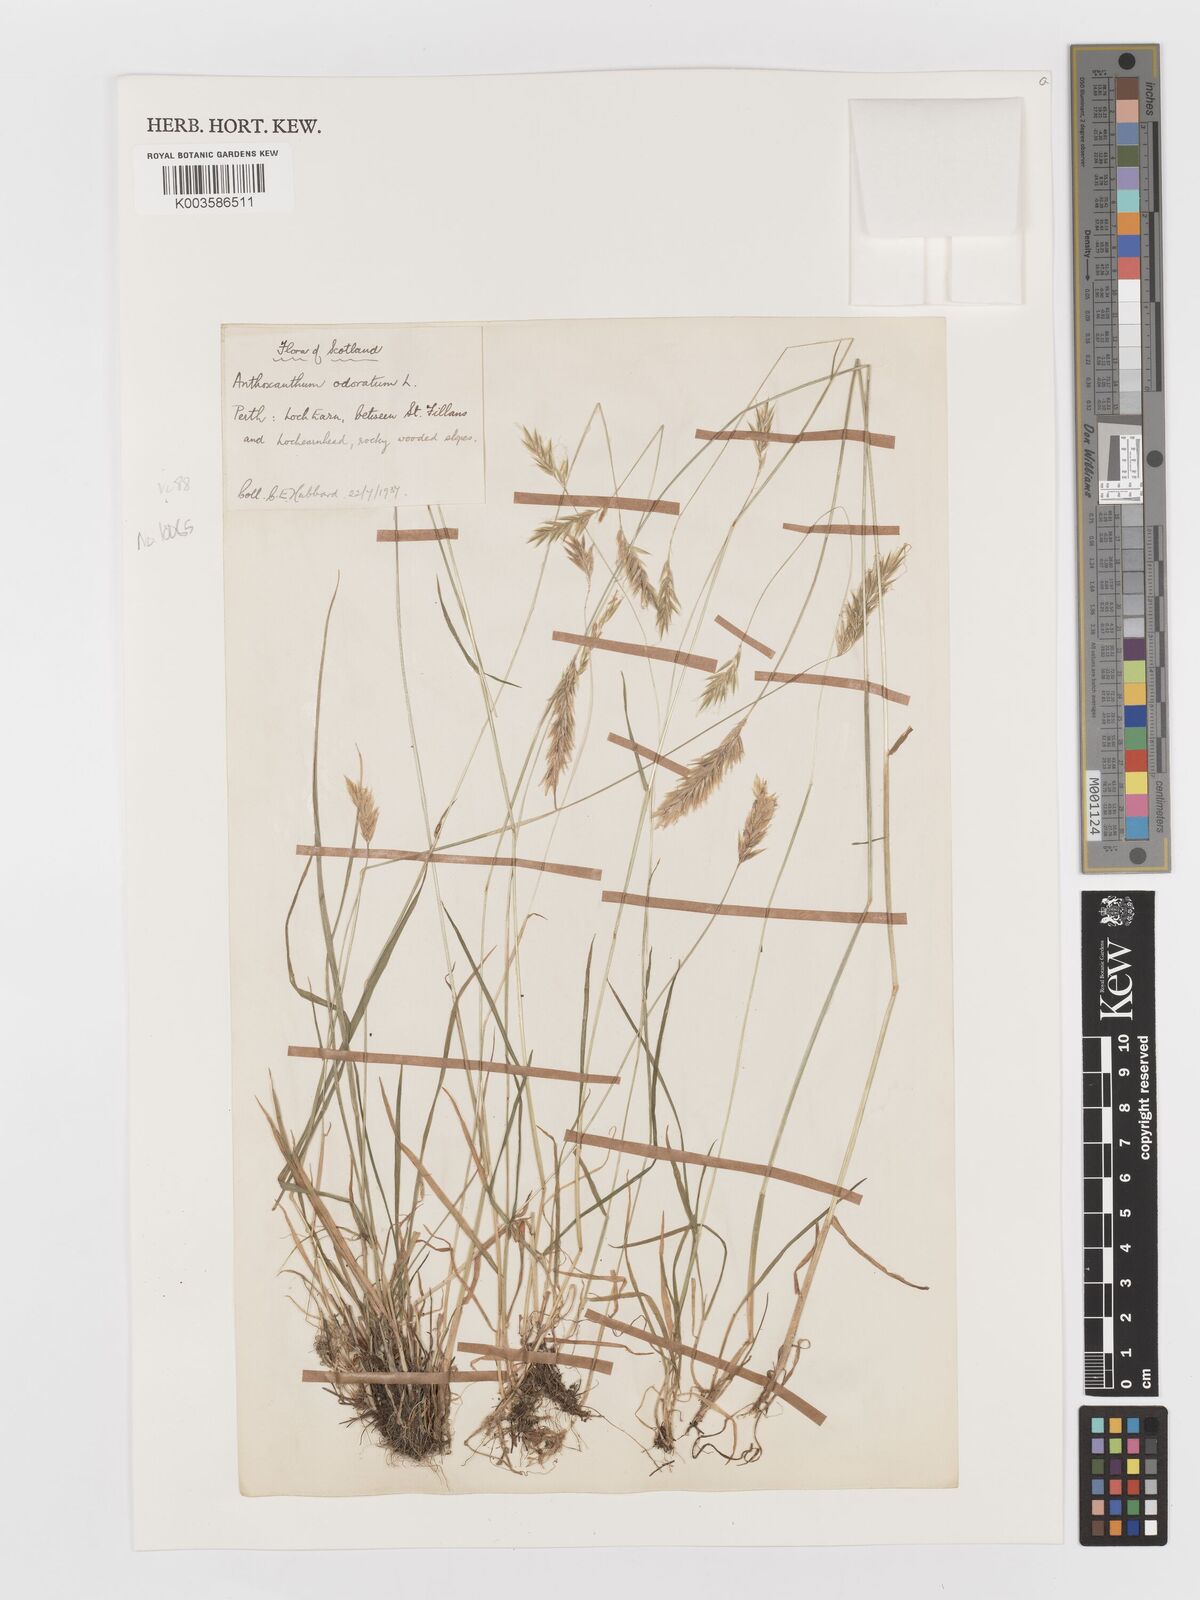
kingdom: Plantae
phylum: Tracheophyta
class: Liliopsida
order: Poales
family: Poaceae
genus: Anthoxanthum
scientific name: Anthoxanthum odoratum
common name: Sweet vernalgrass
